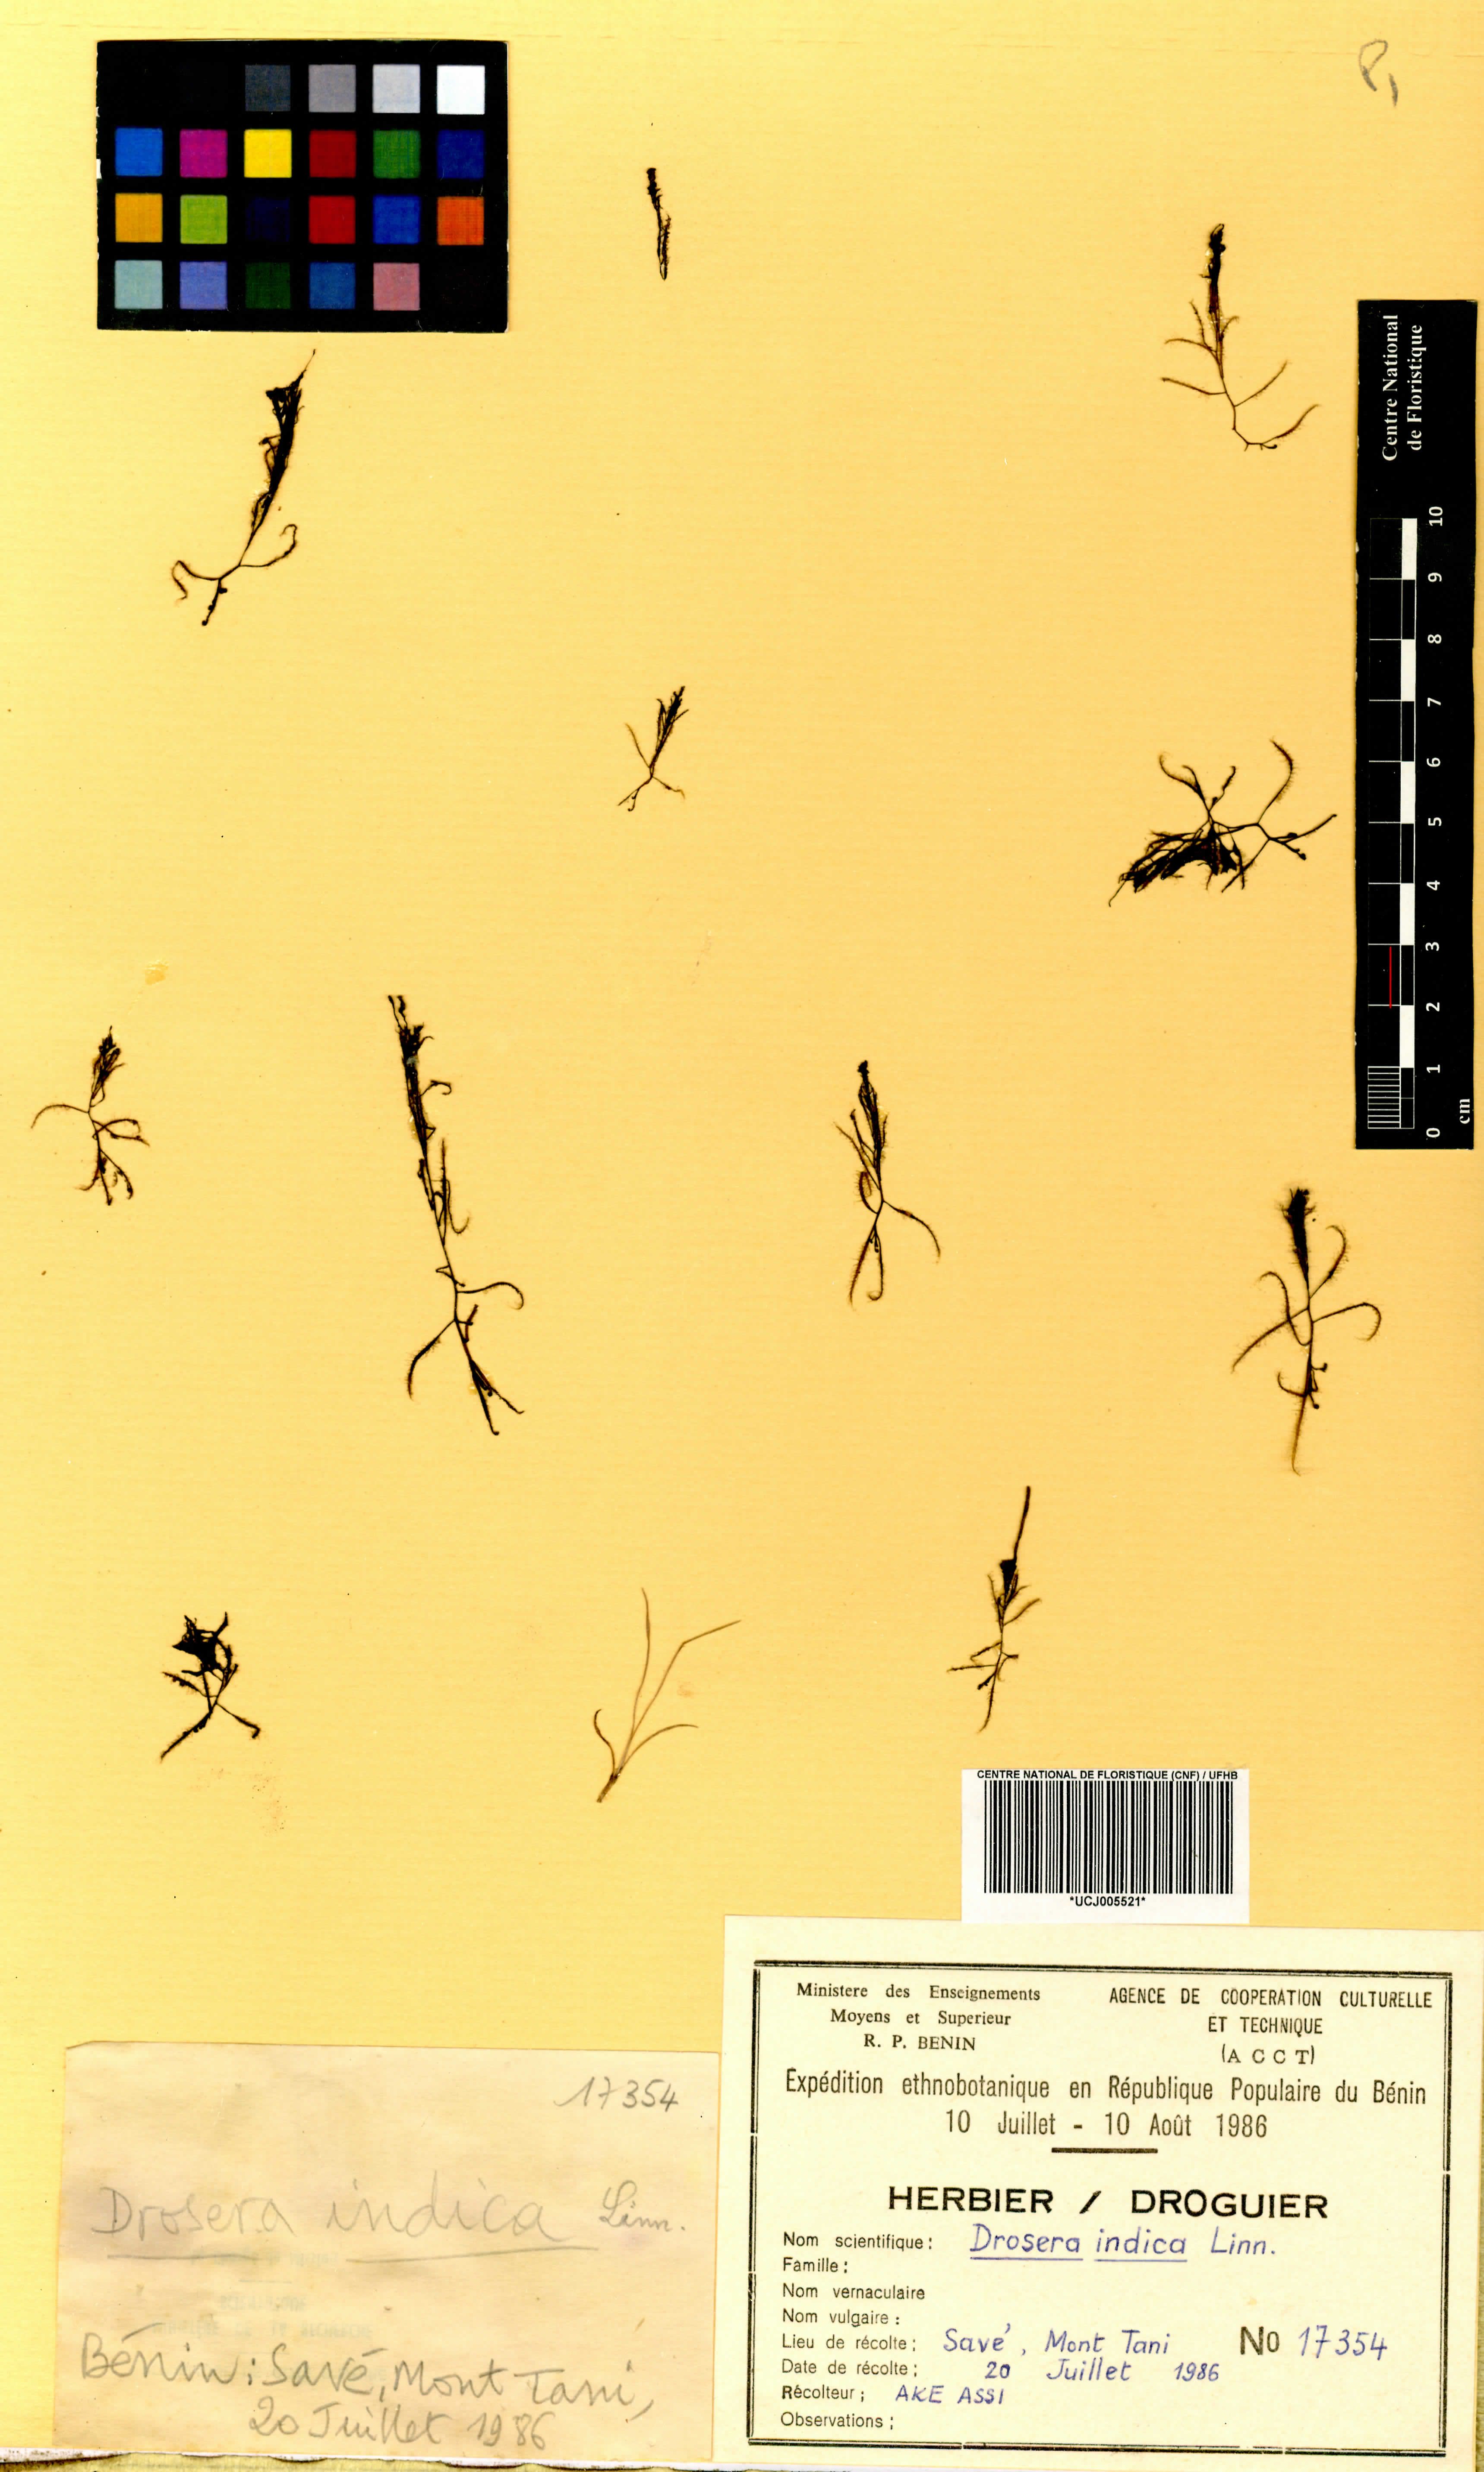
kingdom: Plantae
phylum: Tracheophyta
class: Magnoliopsida
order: Caryophyllales
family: Droseraceae
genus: Drosera
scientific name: Drosera indica
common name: Indian sundew
